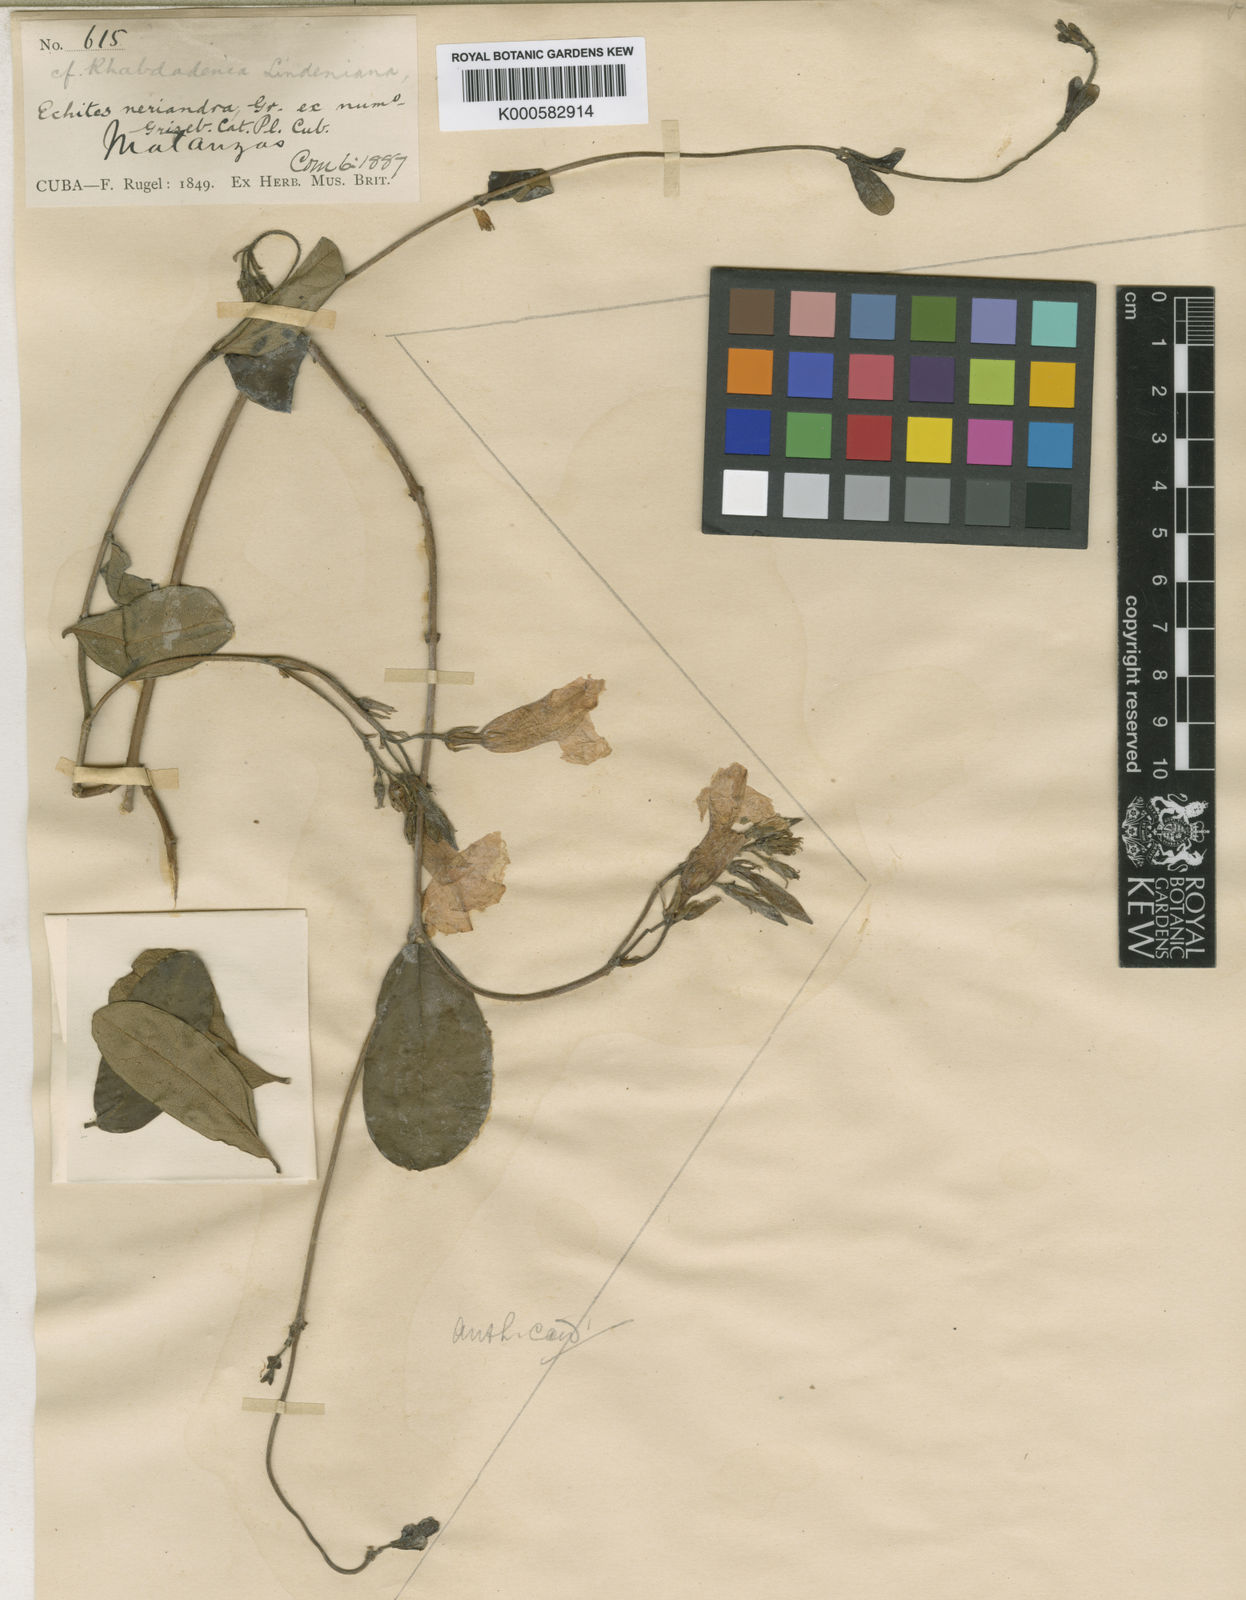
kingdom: Plantae
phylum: Tracheophyta
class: Magnoliopsida
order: Gentianales
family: Apocynaceae
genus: Pentalinon
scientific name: Pentalinon luteum
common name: Licebush
